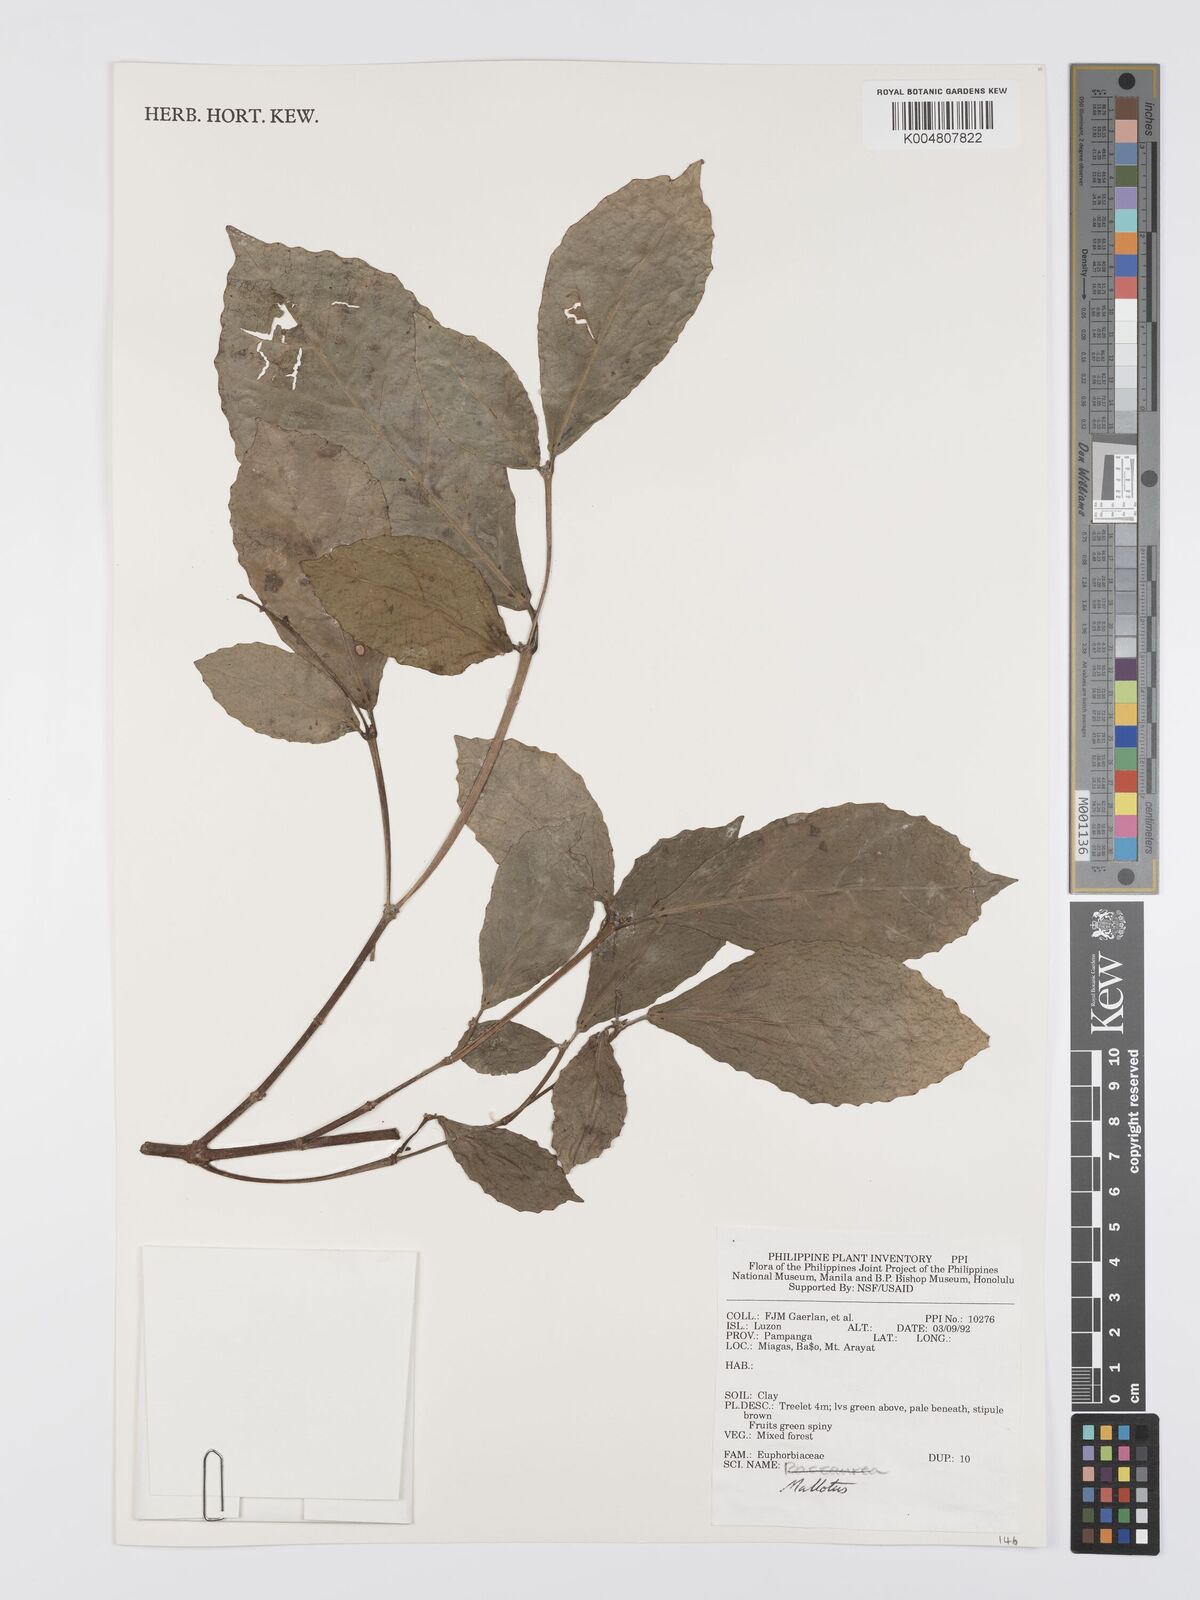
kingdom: Plantae
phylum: Tracheophyta
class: Magnoliopsida
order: Malpighiales
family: Euphorbiaceae
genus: Mallotus
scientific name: Mallotus
